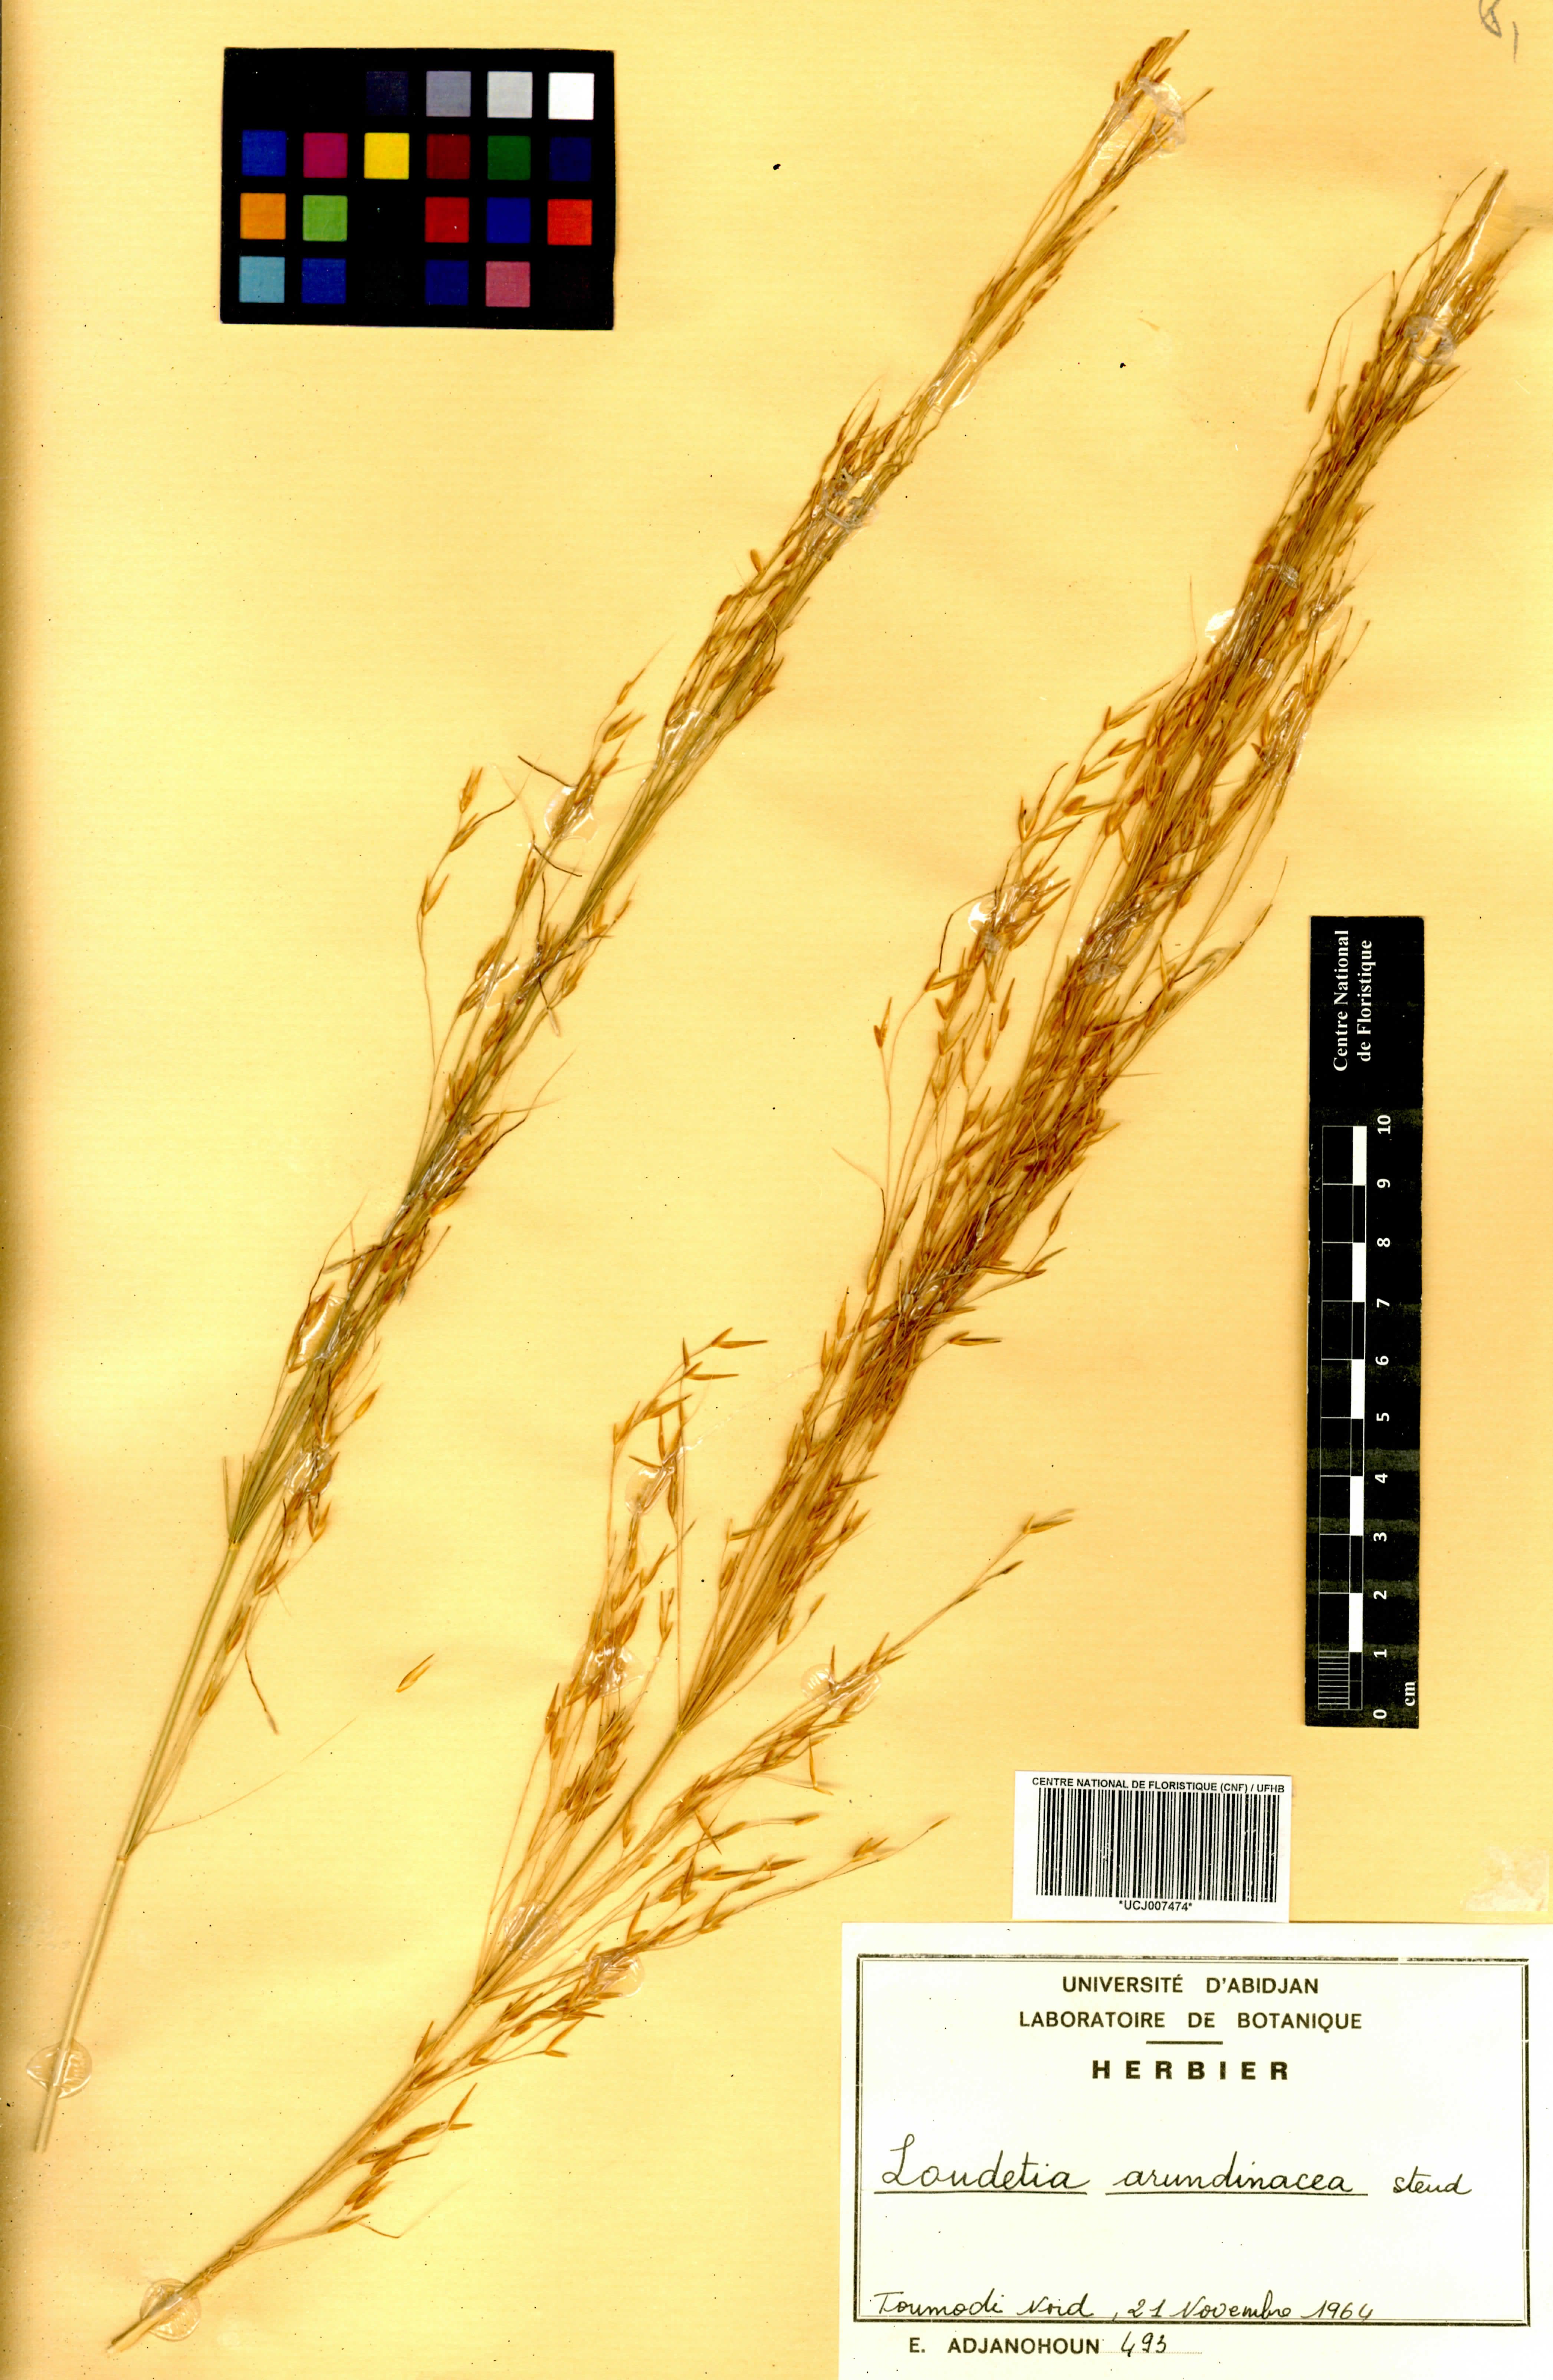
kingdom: Plantae
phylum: Tracheophyta
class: Liliopsida
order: Poales
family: Poaceae
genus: Loudetia
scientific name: Loudetia arundinacea
